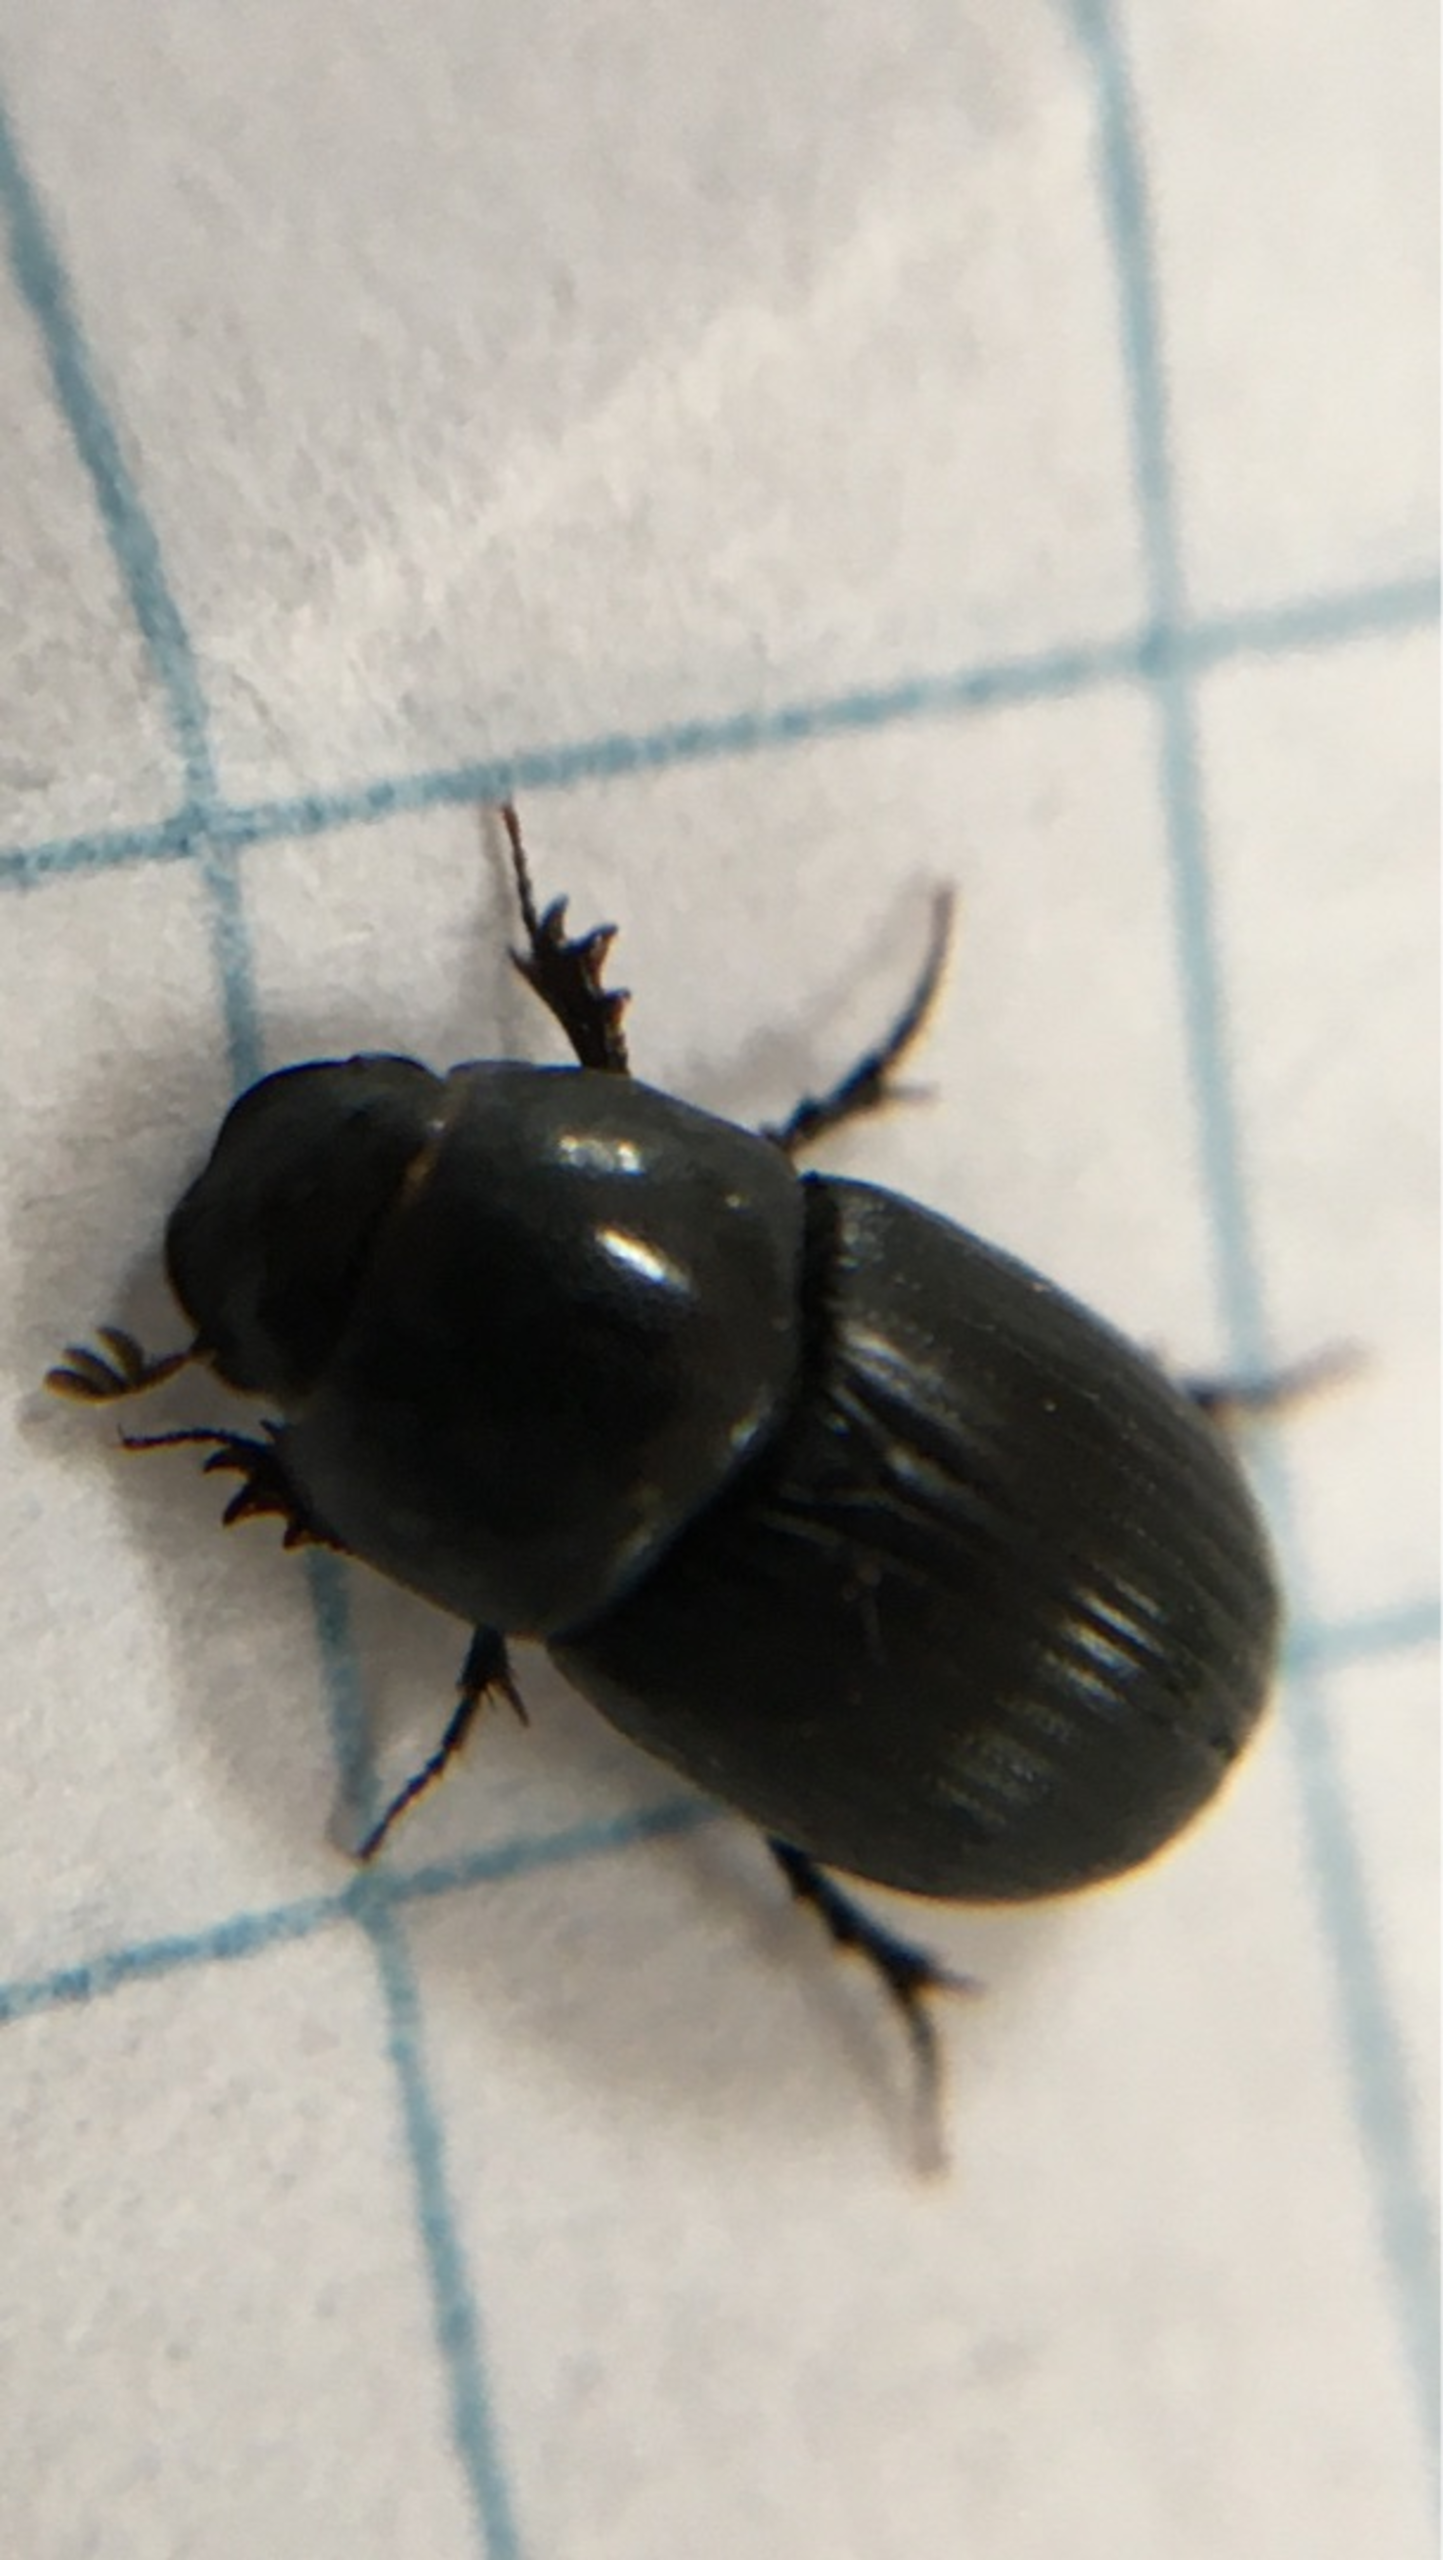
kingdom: Animalia
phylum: Arthropoda
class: Insecta
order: Coleoptera
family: Scarabaeidae
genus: Agrilinus
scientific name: Agrilinus ater
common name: Matsort møgbille
